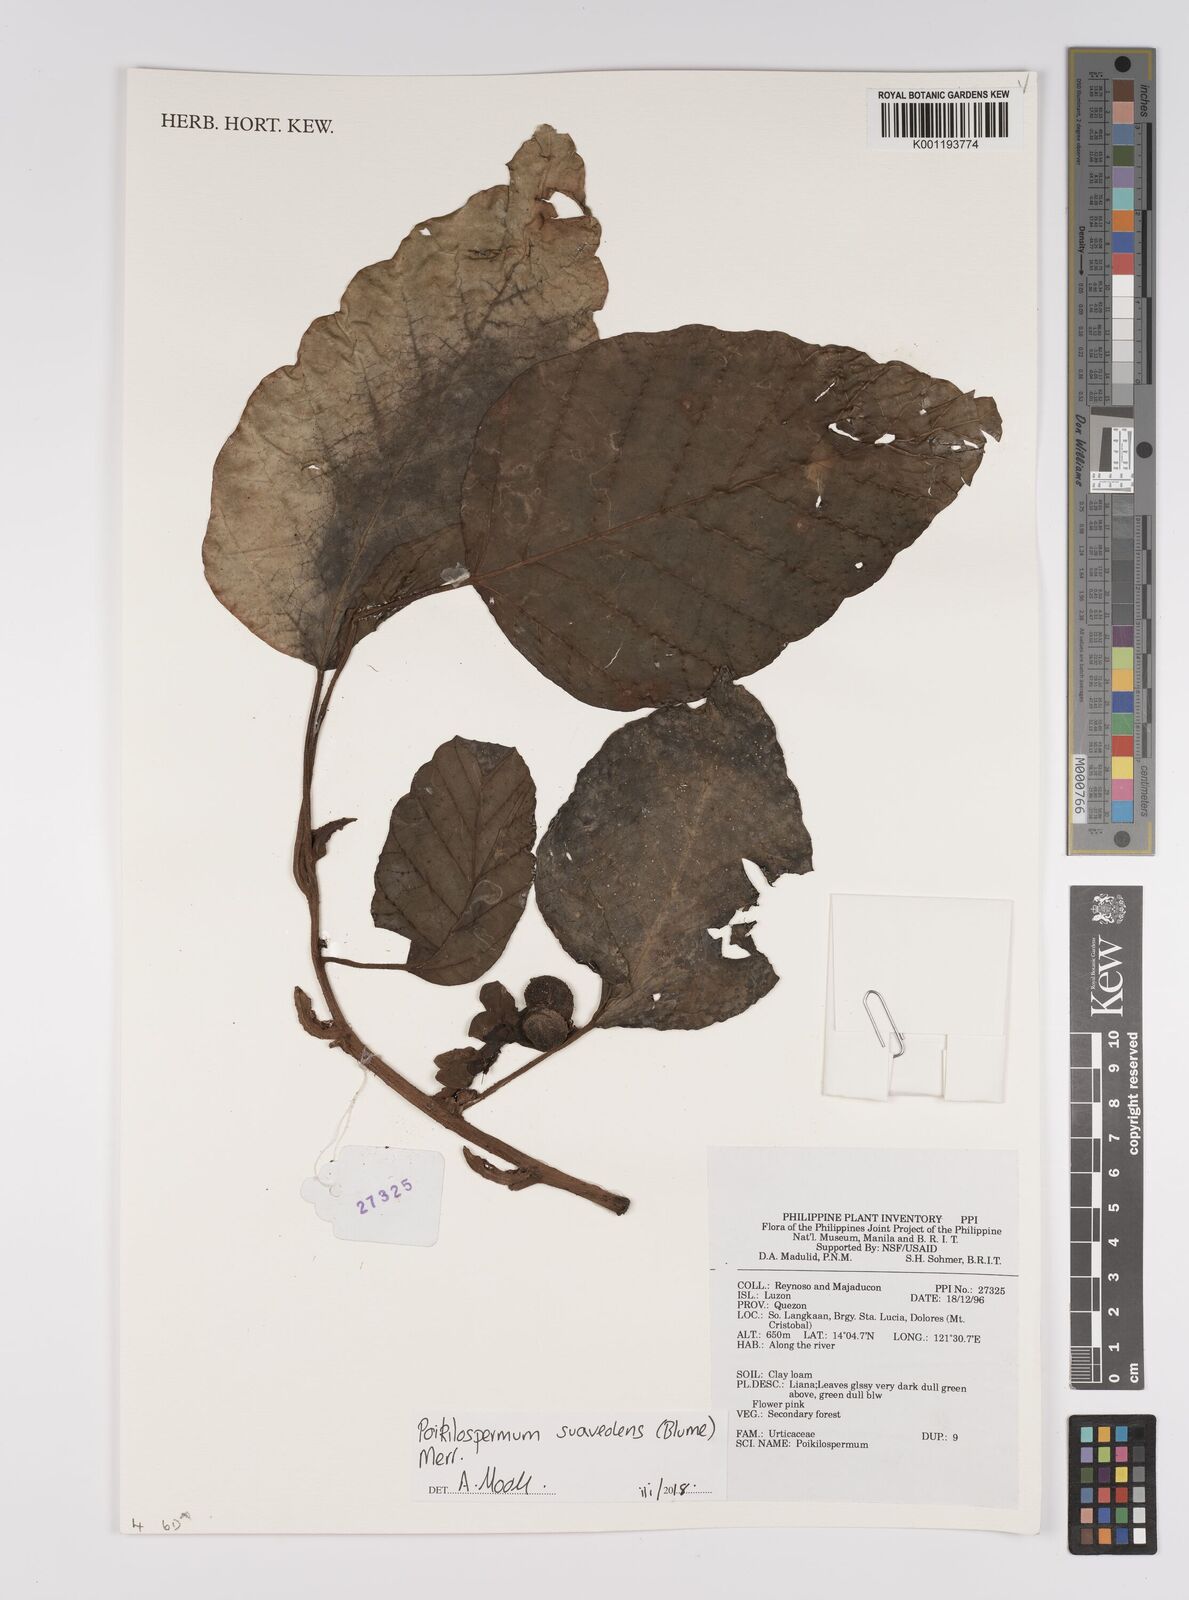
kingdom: Plantae
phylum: Tracheophyta
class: Magnoliopsida
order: Rosales
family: Urticaceae
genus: Poikilospermum
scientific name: Poikilospermum suaveolens
